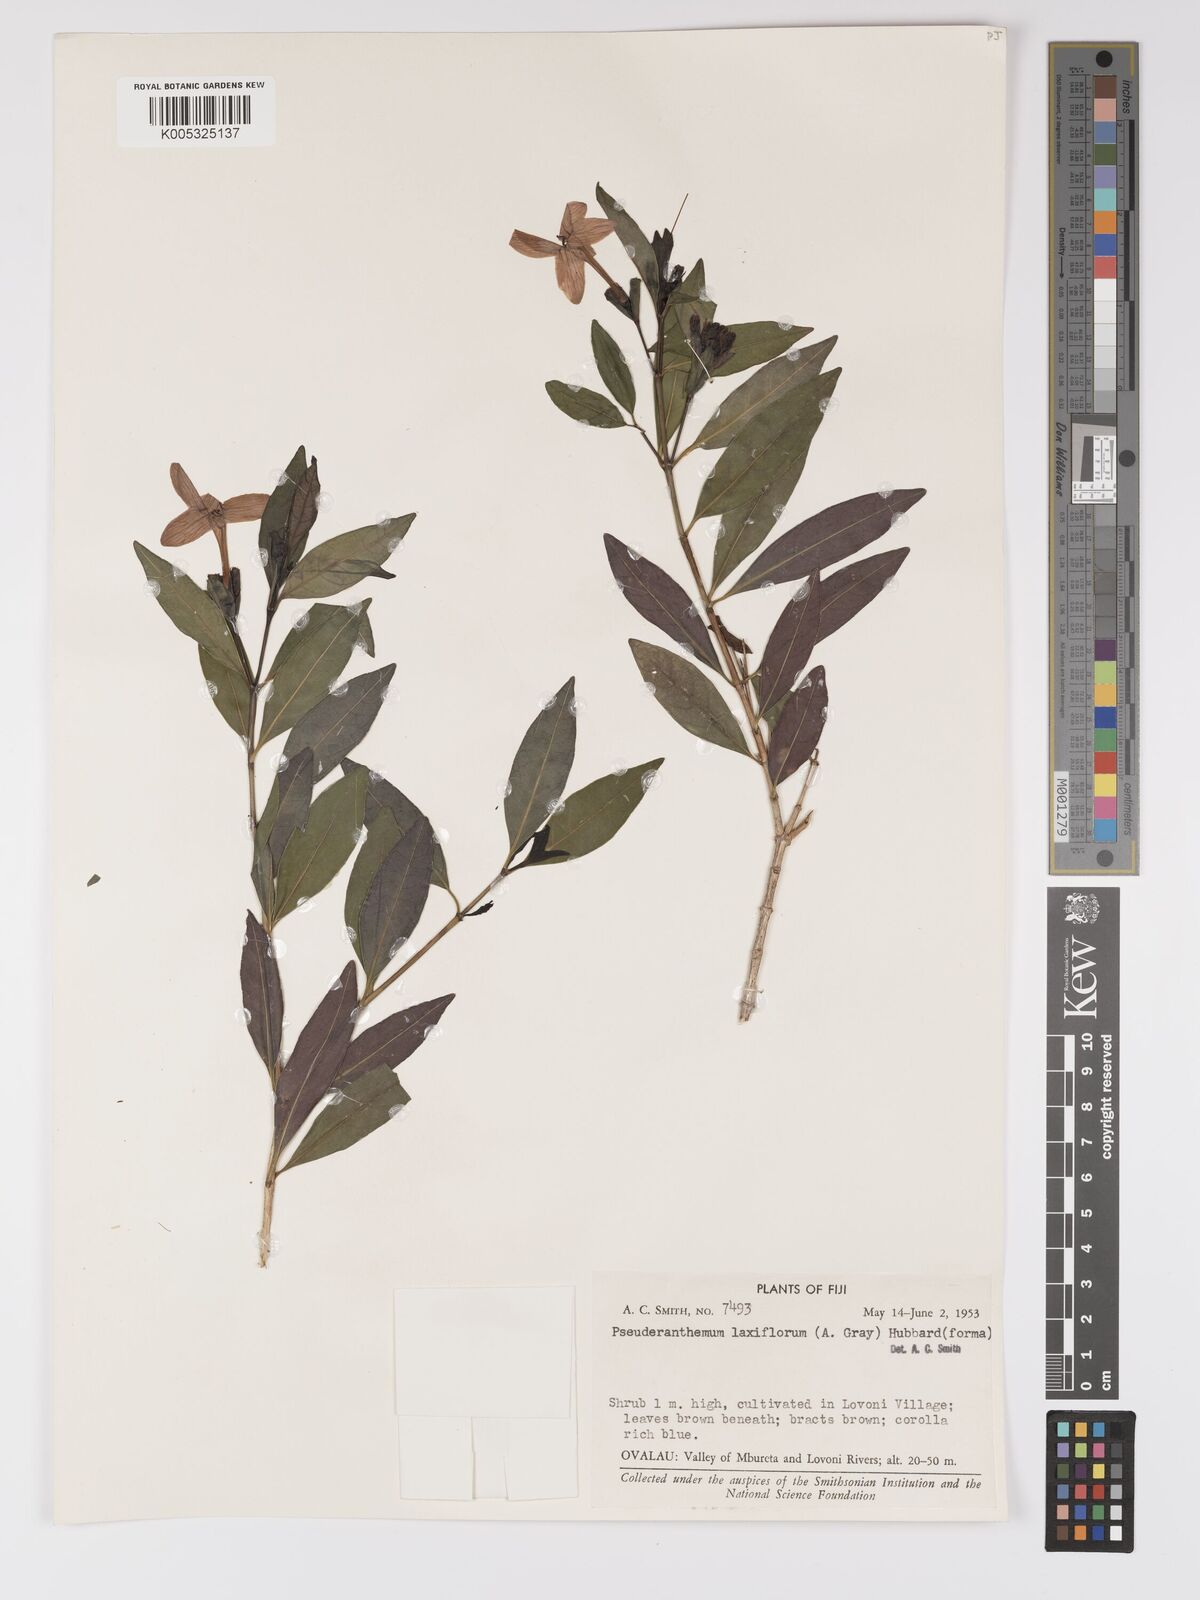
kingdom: Plantae
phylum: Tracheophyta
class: Magnoliopsida
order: Lamiales
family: Acanthaceae
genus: Pseuderanthemum
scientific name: Pseuderanthemum laxiflorum
